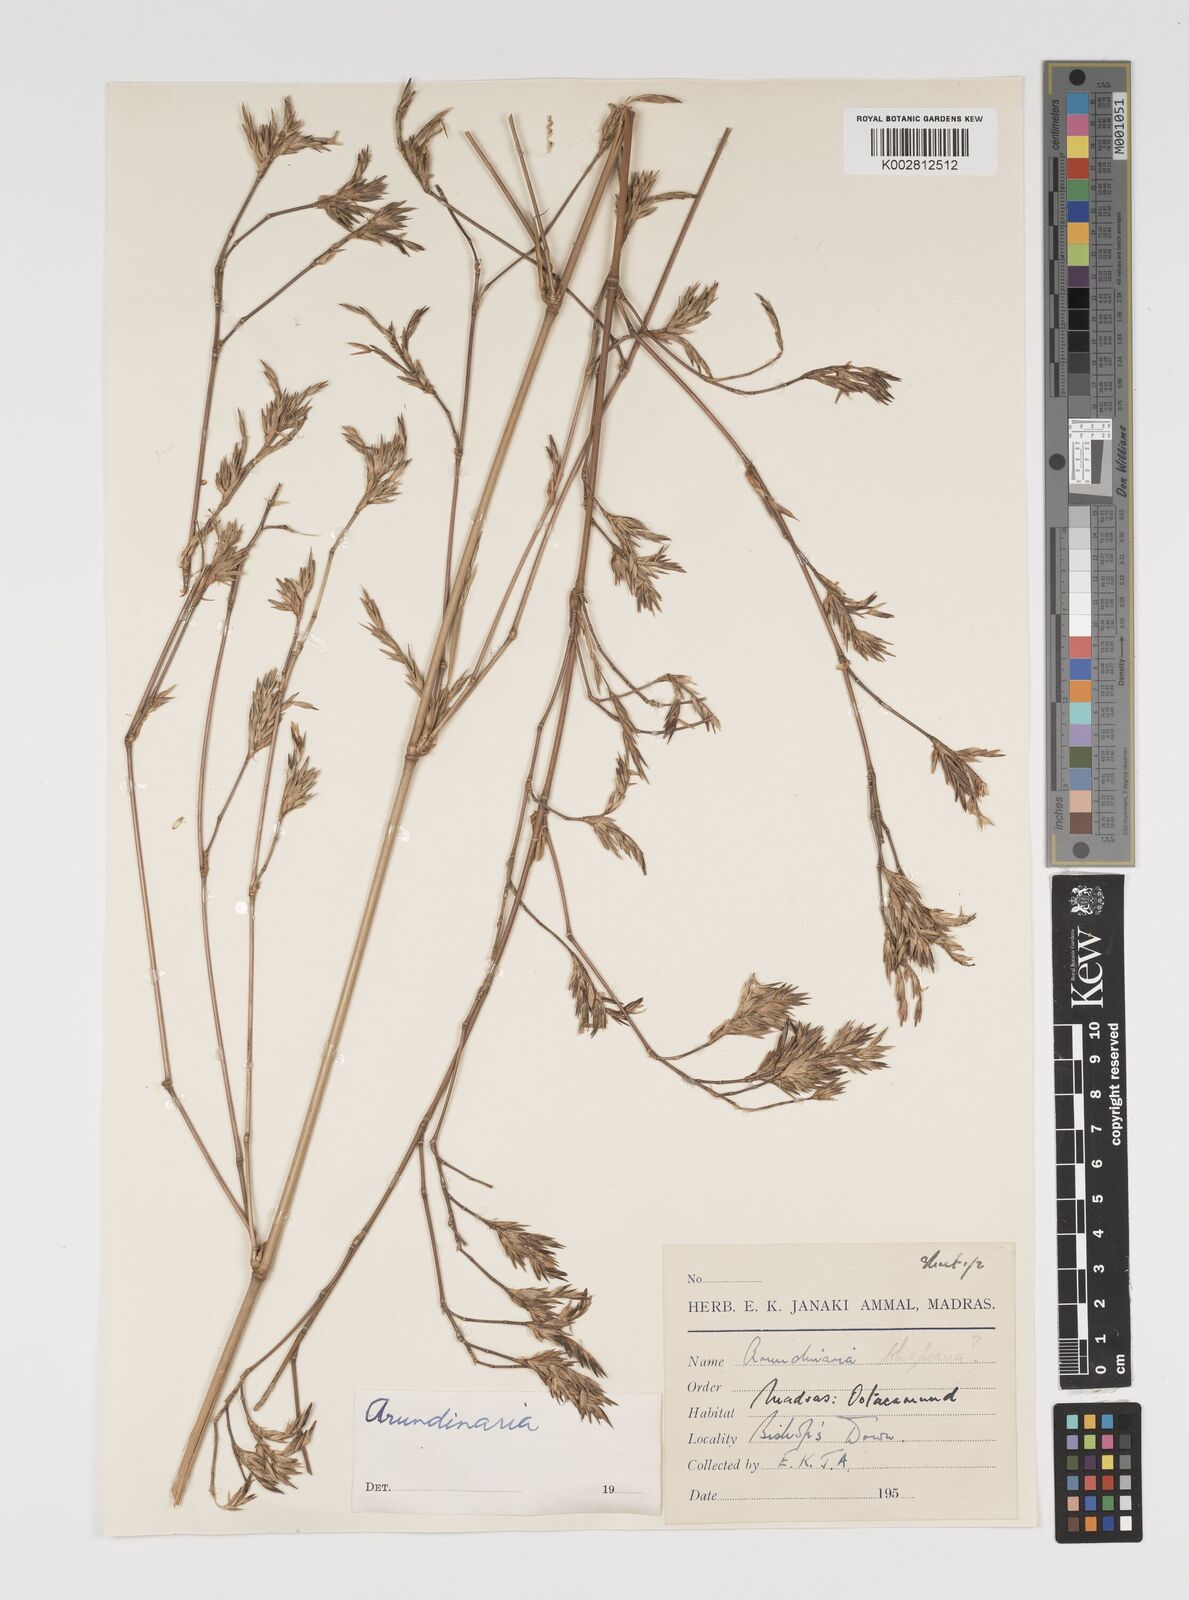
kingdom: Plantae
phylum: Tracheophyta
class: Liliopsida
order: Poales
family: Poaceae
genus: Arundinaria
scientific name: Arundinaria
